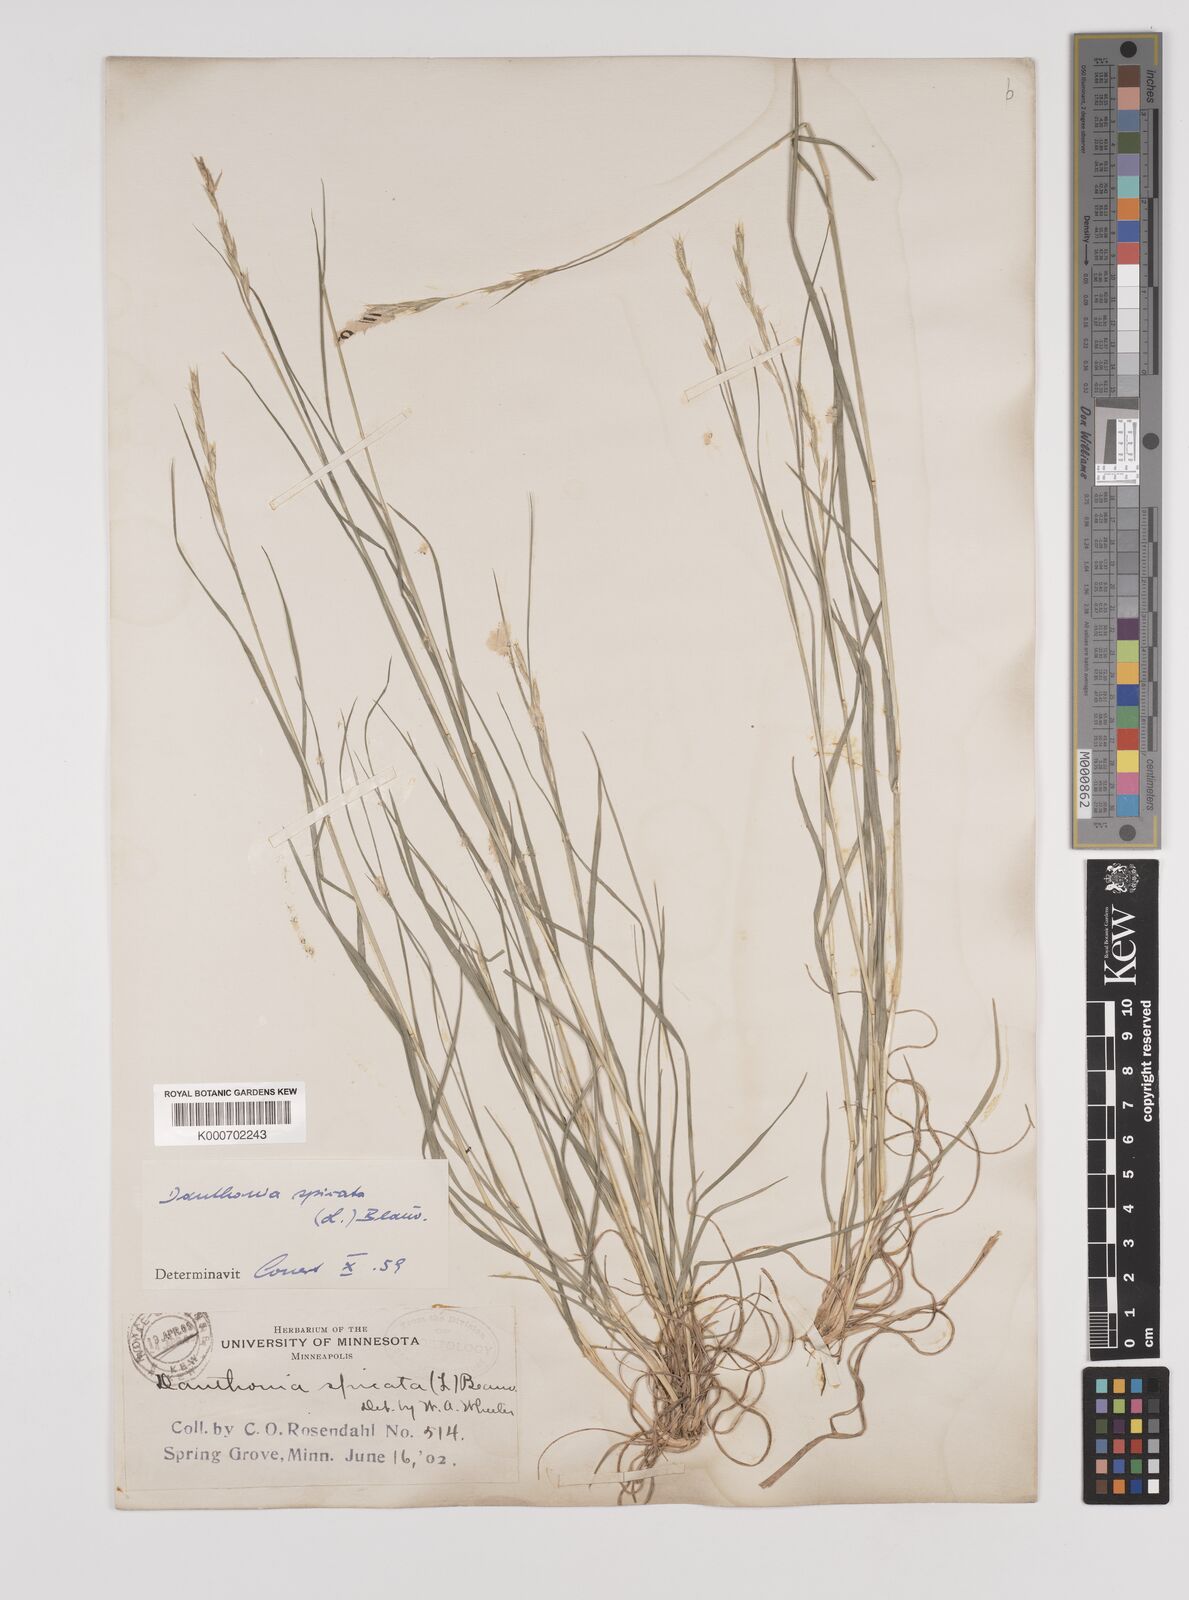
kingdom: Plantae
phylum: Tracheophyta
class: Liliopsida
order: Poales
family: Poaceae
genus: Danthonia
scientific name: Danthonia spicata
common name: Common wild oatgrass
